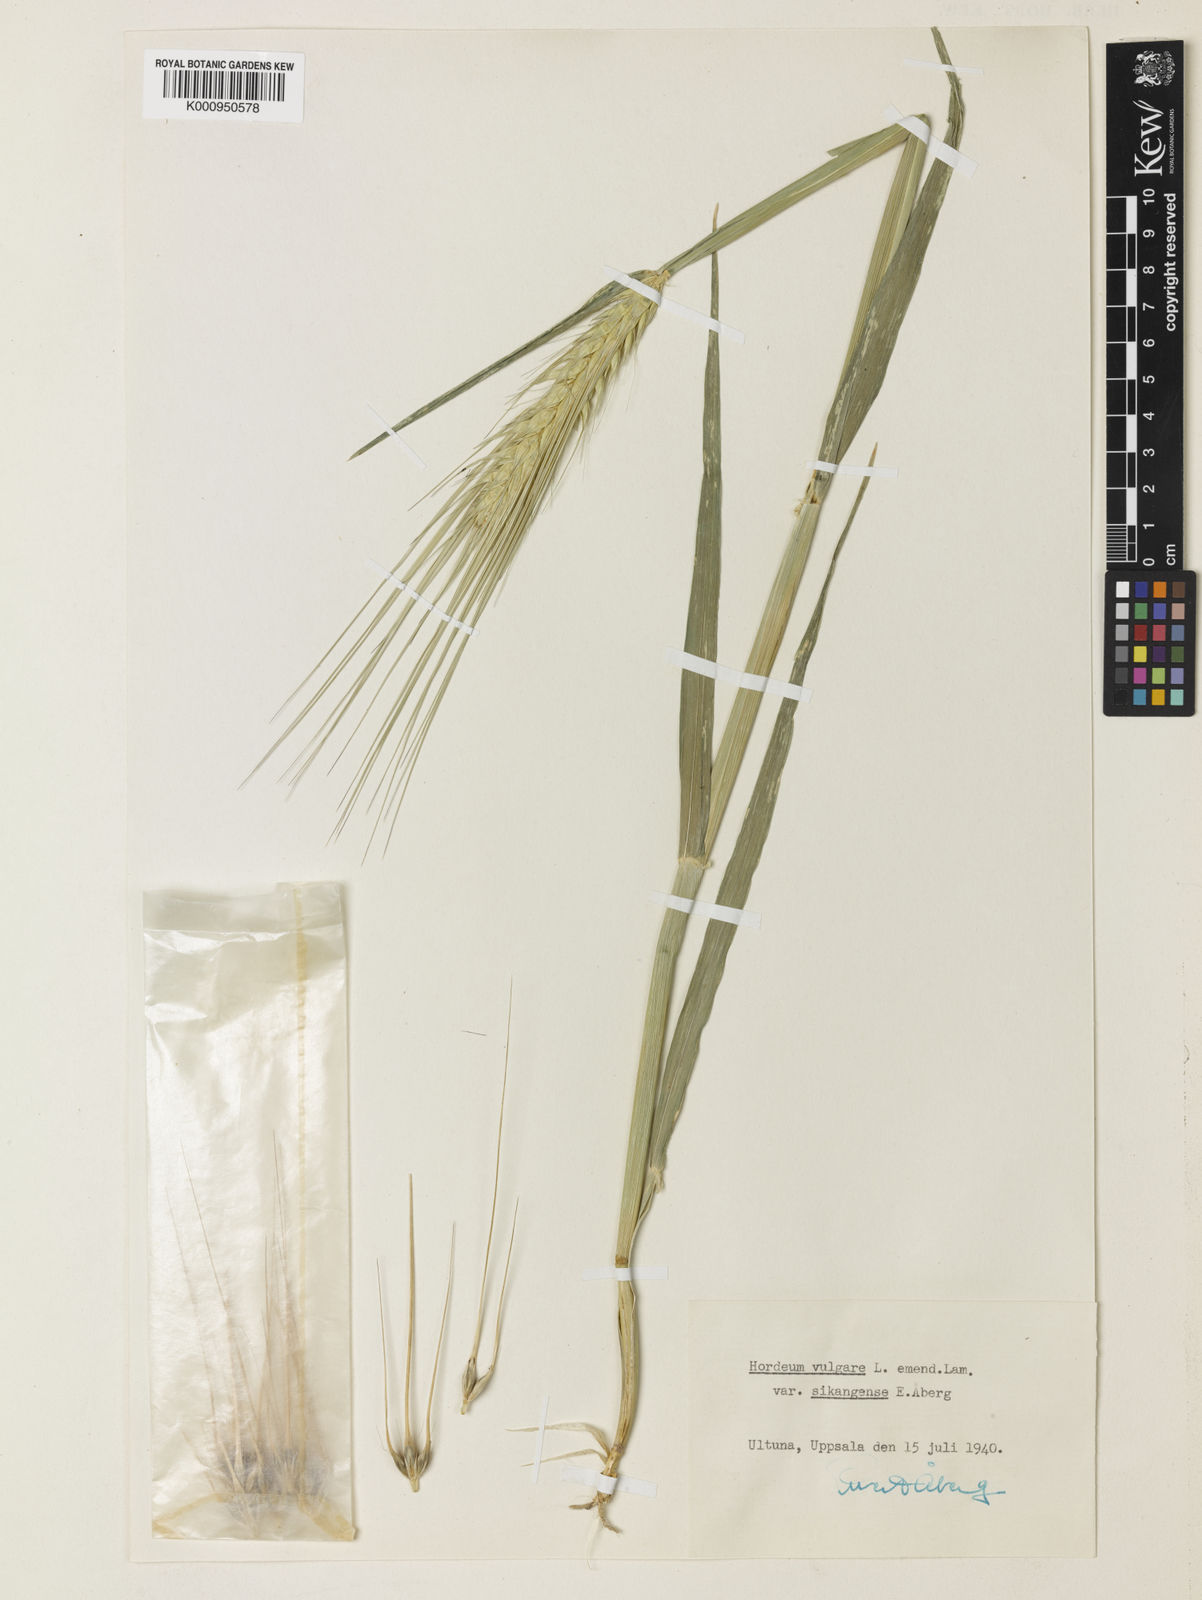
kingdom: Plantae
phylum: Tracheophyta
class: Liliopsida
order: Poales
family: Poaceae
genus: Hordeum
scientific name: Hordeum vulgare
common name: Common barley
